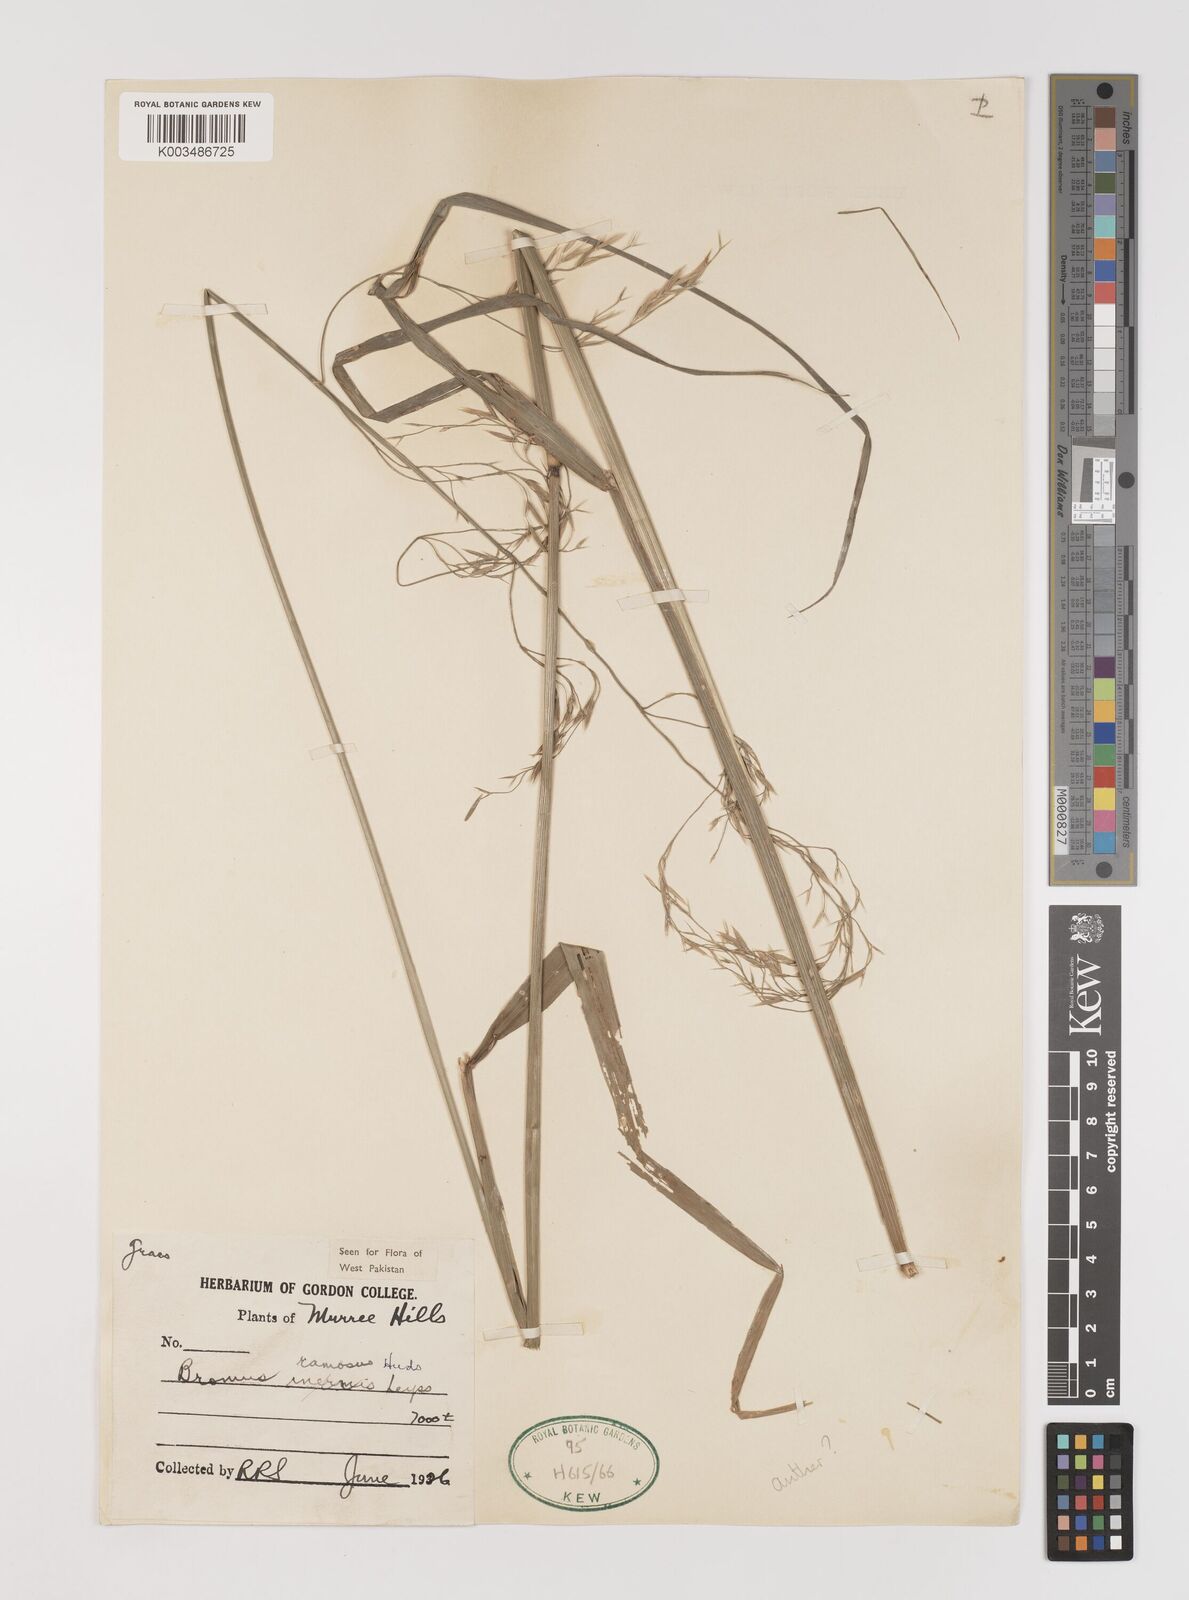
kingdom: Plantae
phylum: Tracheophyta
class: Liliopsida
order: Poales
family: Poaceae
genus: Brachypodium
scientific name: Brachypodium retusum
